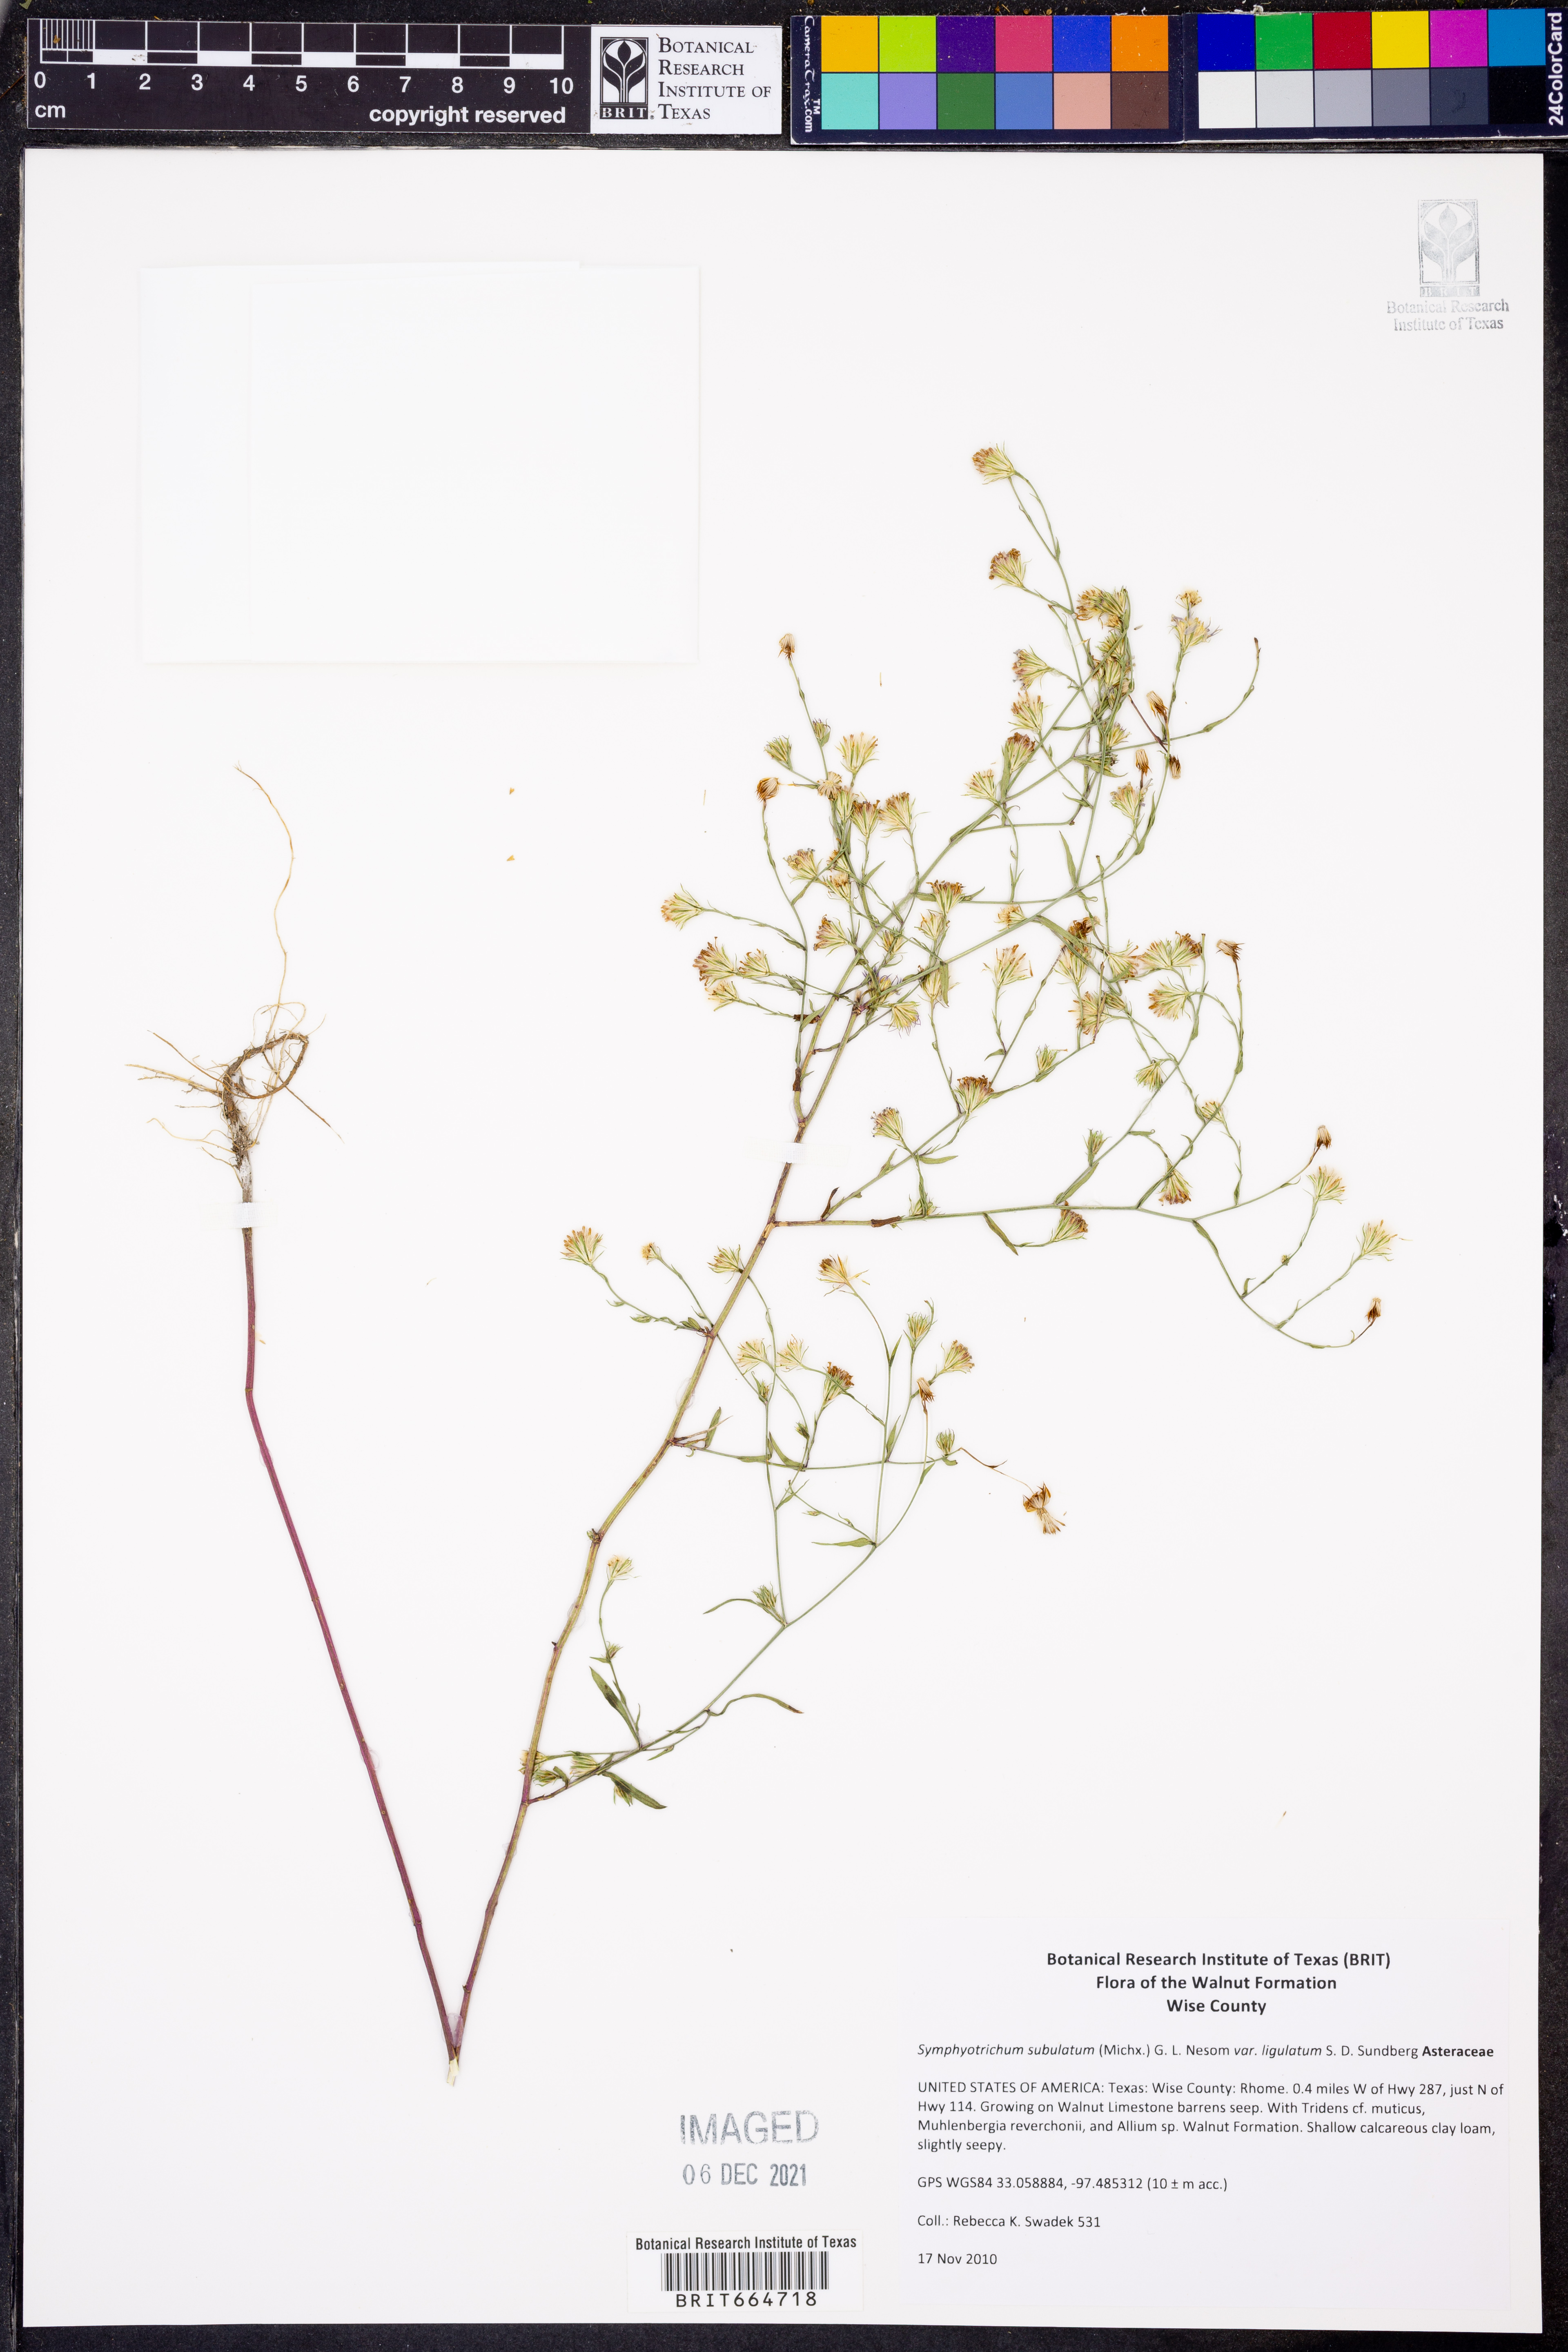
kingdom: Plantae
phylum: Tracheophyta
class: Magnoliopsida
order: Asterales
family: Asteraceae
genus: Symphyotrichum
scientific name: Symphyotrichum divaricatum
